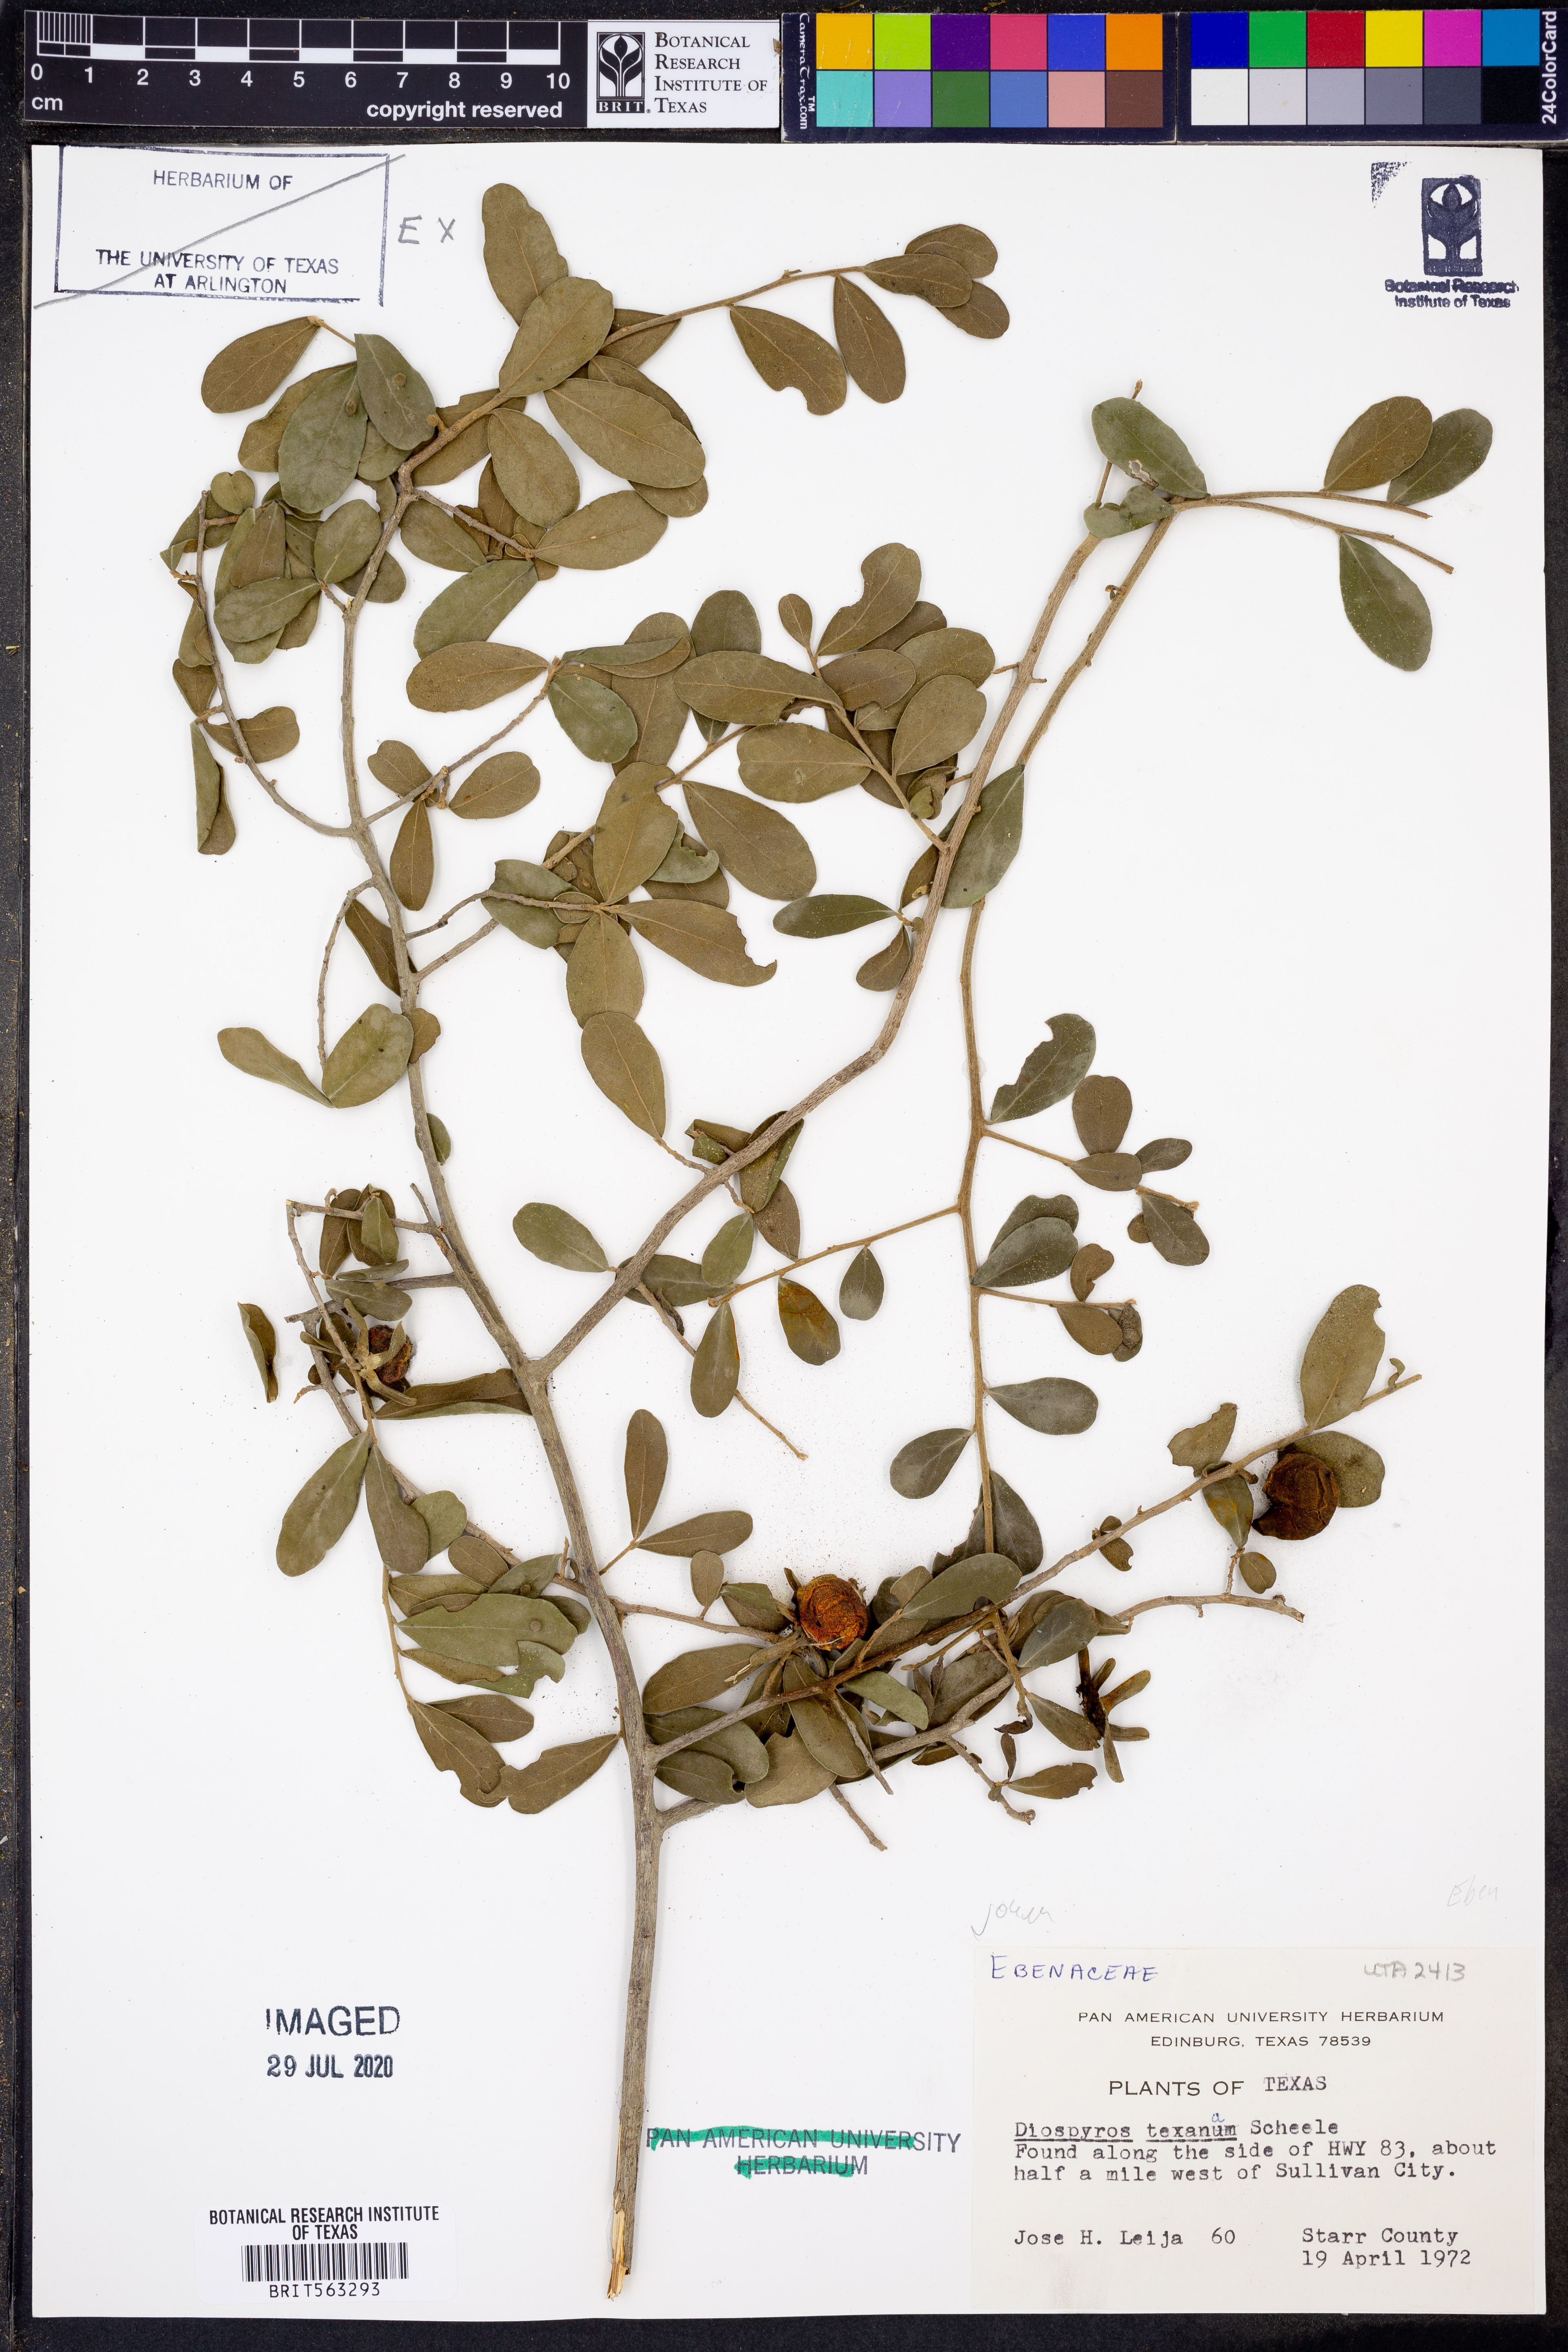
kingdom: Plantae
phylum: Tracheophyta
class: Magnoliopsida
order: Ericales
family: Ebenaceae
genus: Diospyros
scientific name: Diospyros texana
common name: Texas persimmon
